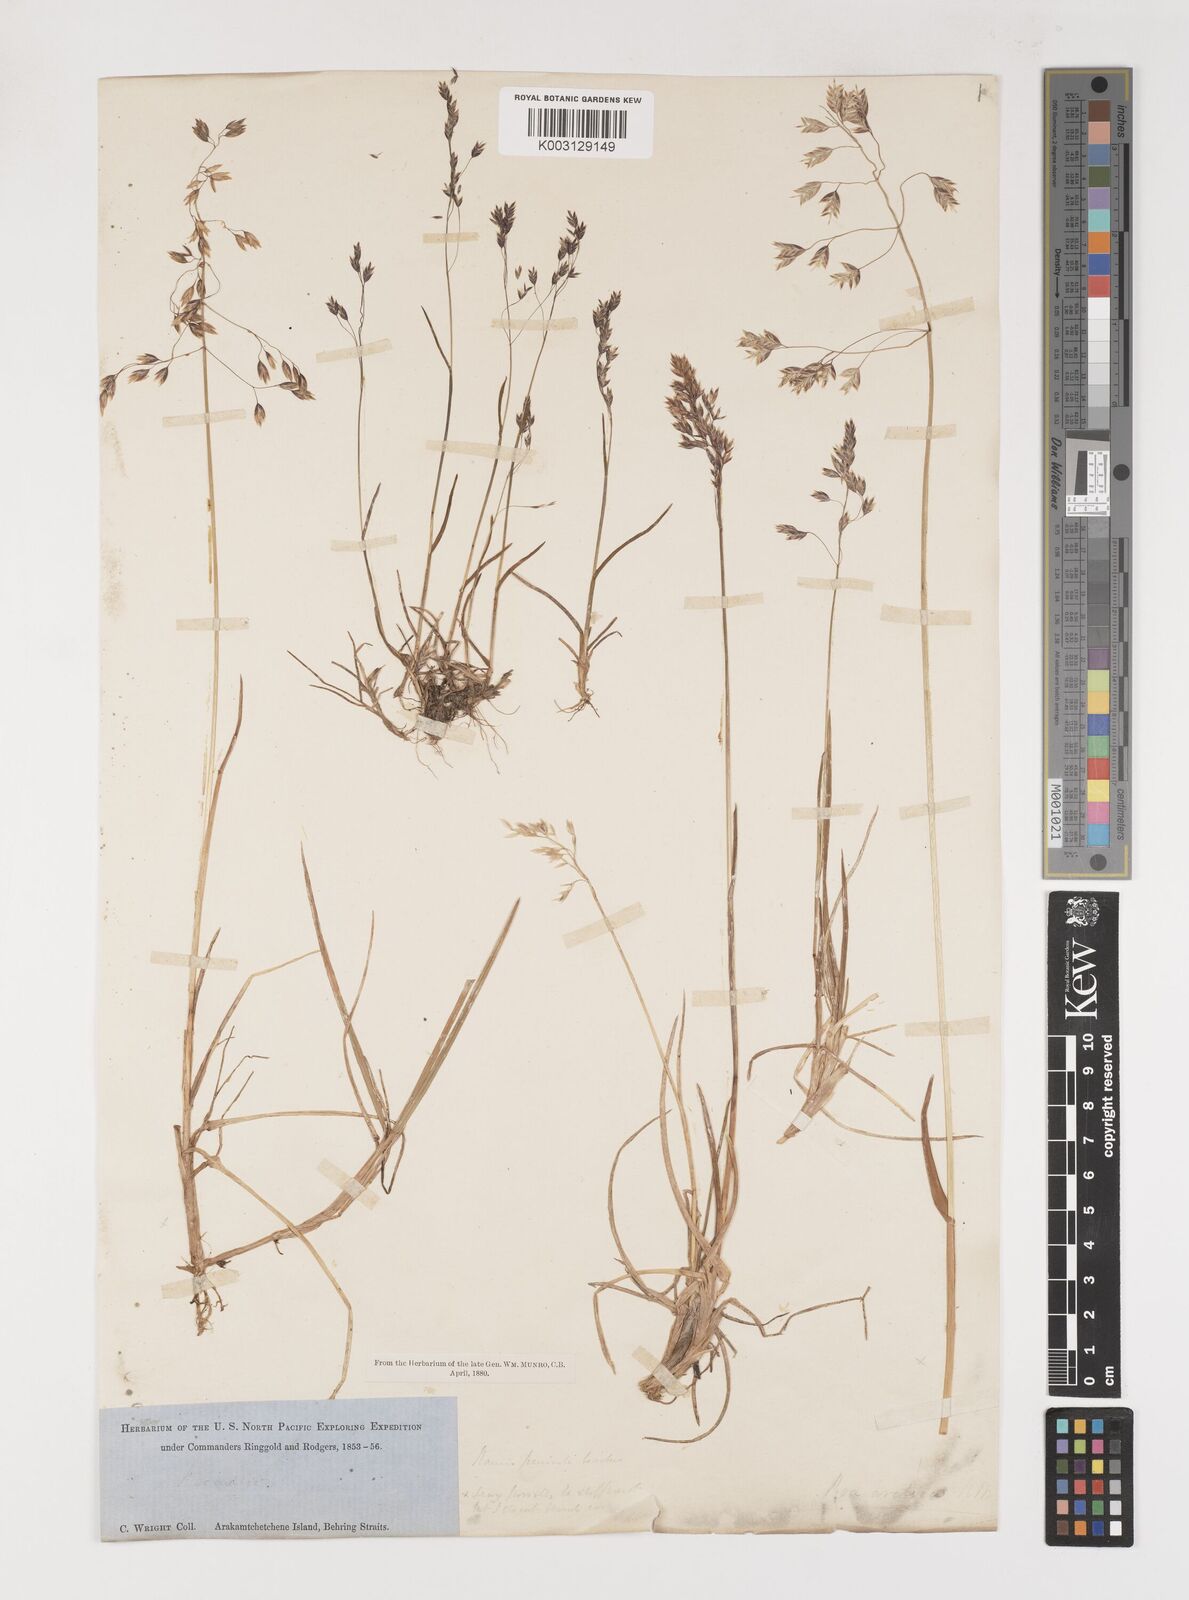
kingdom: Plantae
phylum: Tracheophyta
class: Liliopsida
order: Poales
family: Poaceae
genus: Poa
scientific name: Poa arctica
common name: Arctic bluegrass
